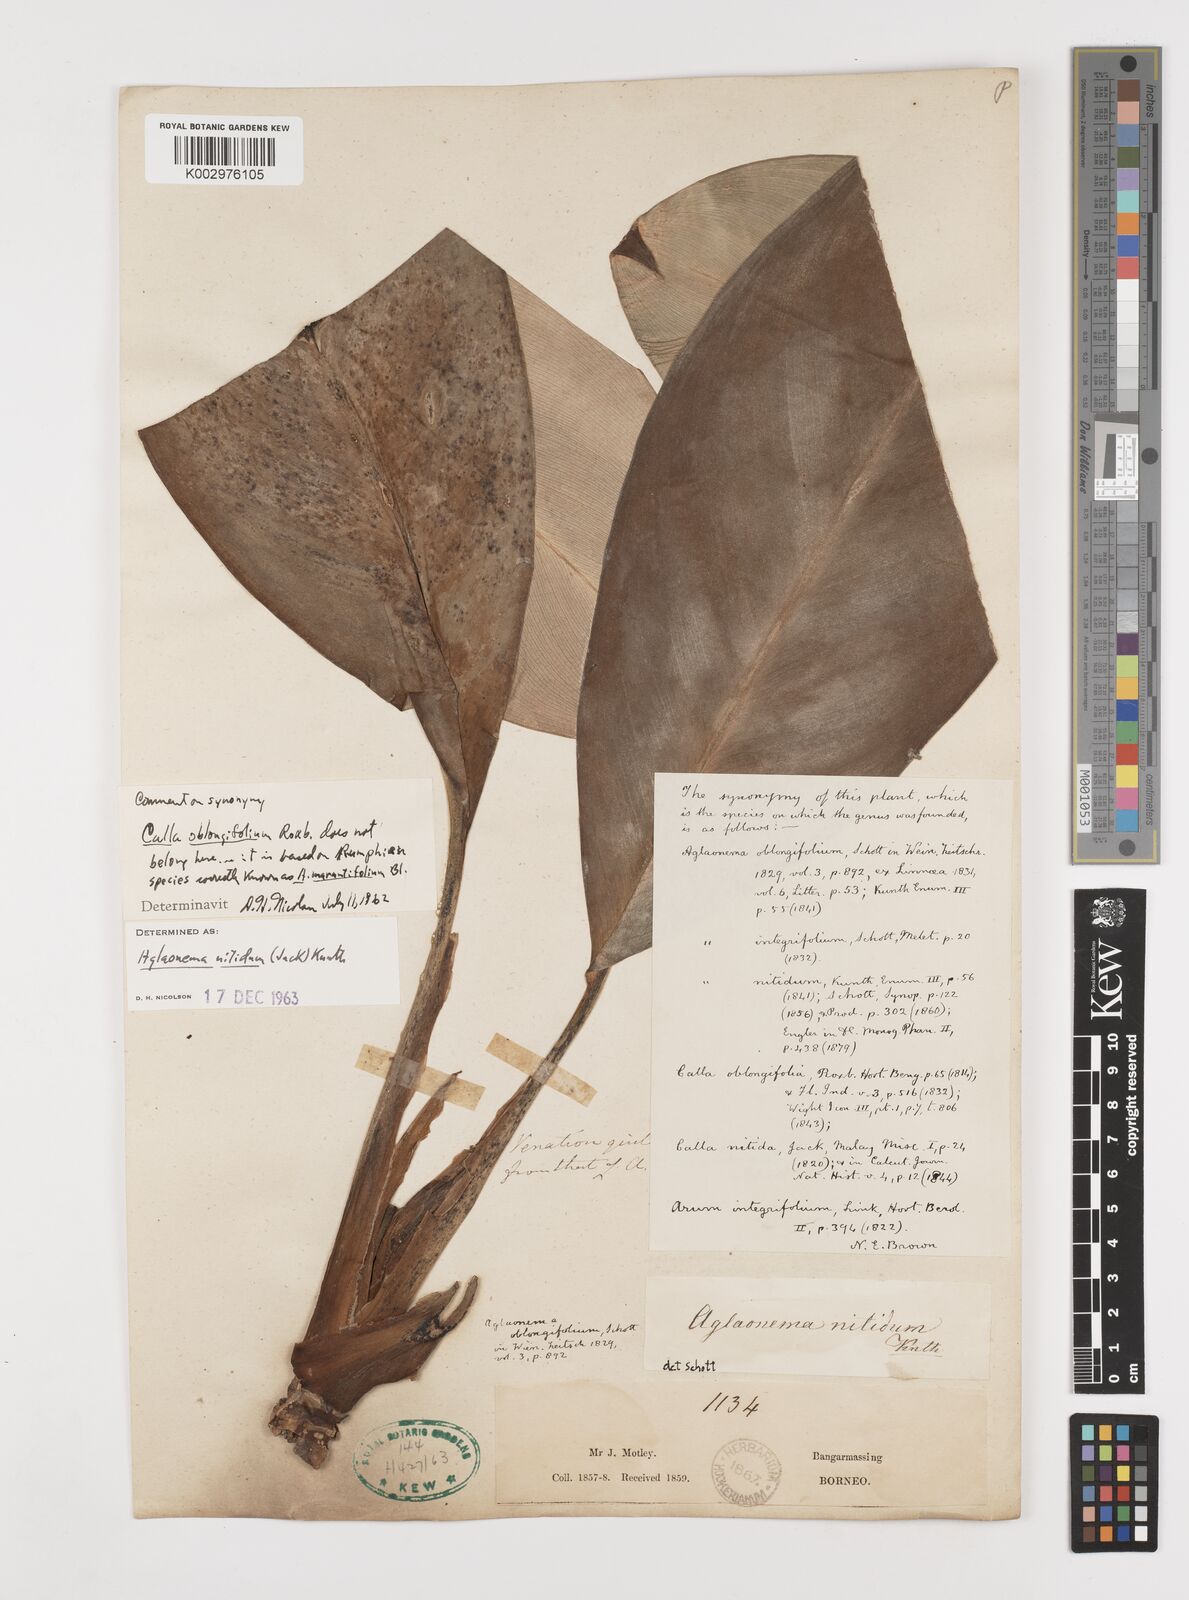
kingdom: Plantae
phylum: Tracheophyta
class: Liliopsida
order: Alismatales
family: Araceae
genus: Aglaonema
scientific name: Aglaonema nitidum
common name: Aglaonema aroid
